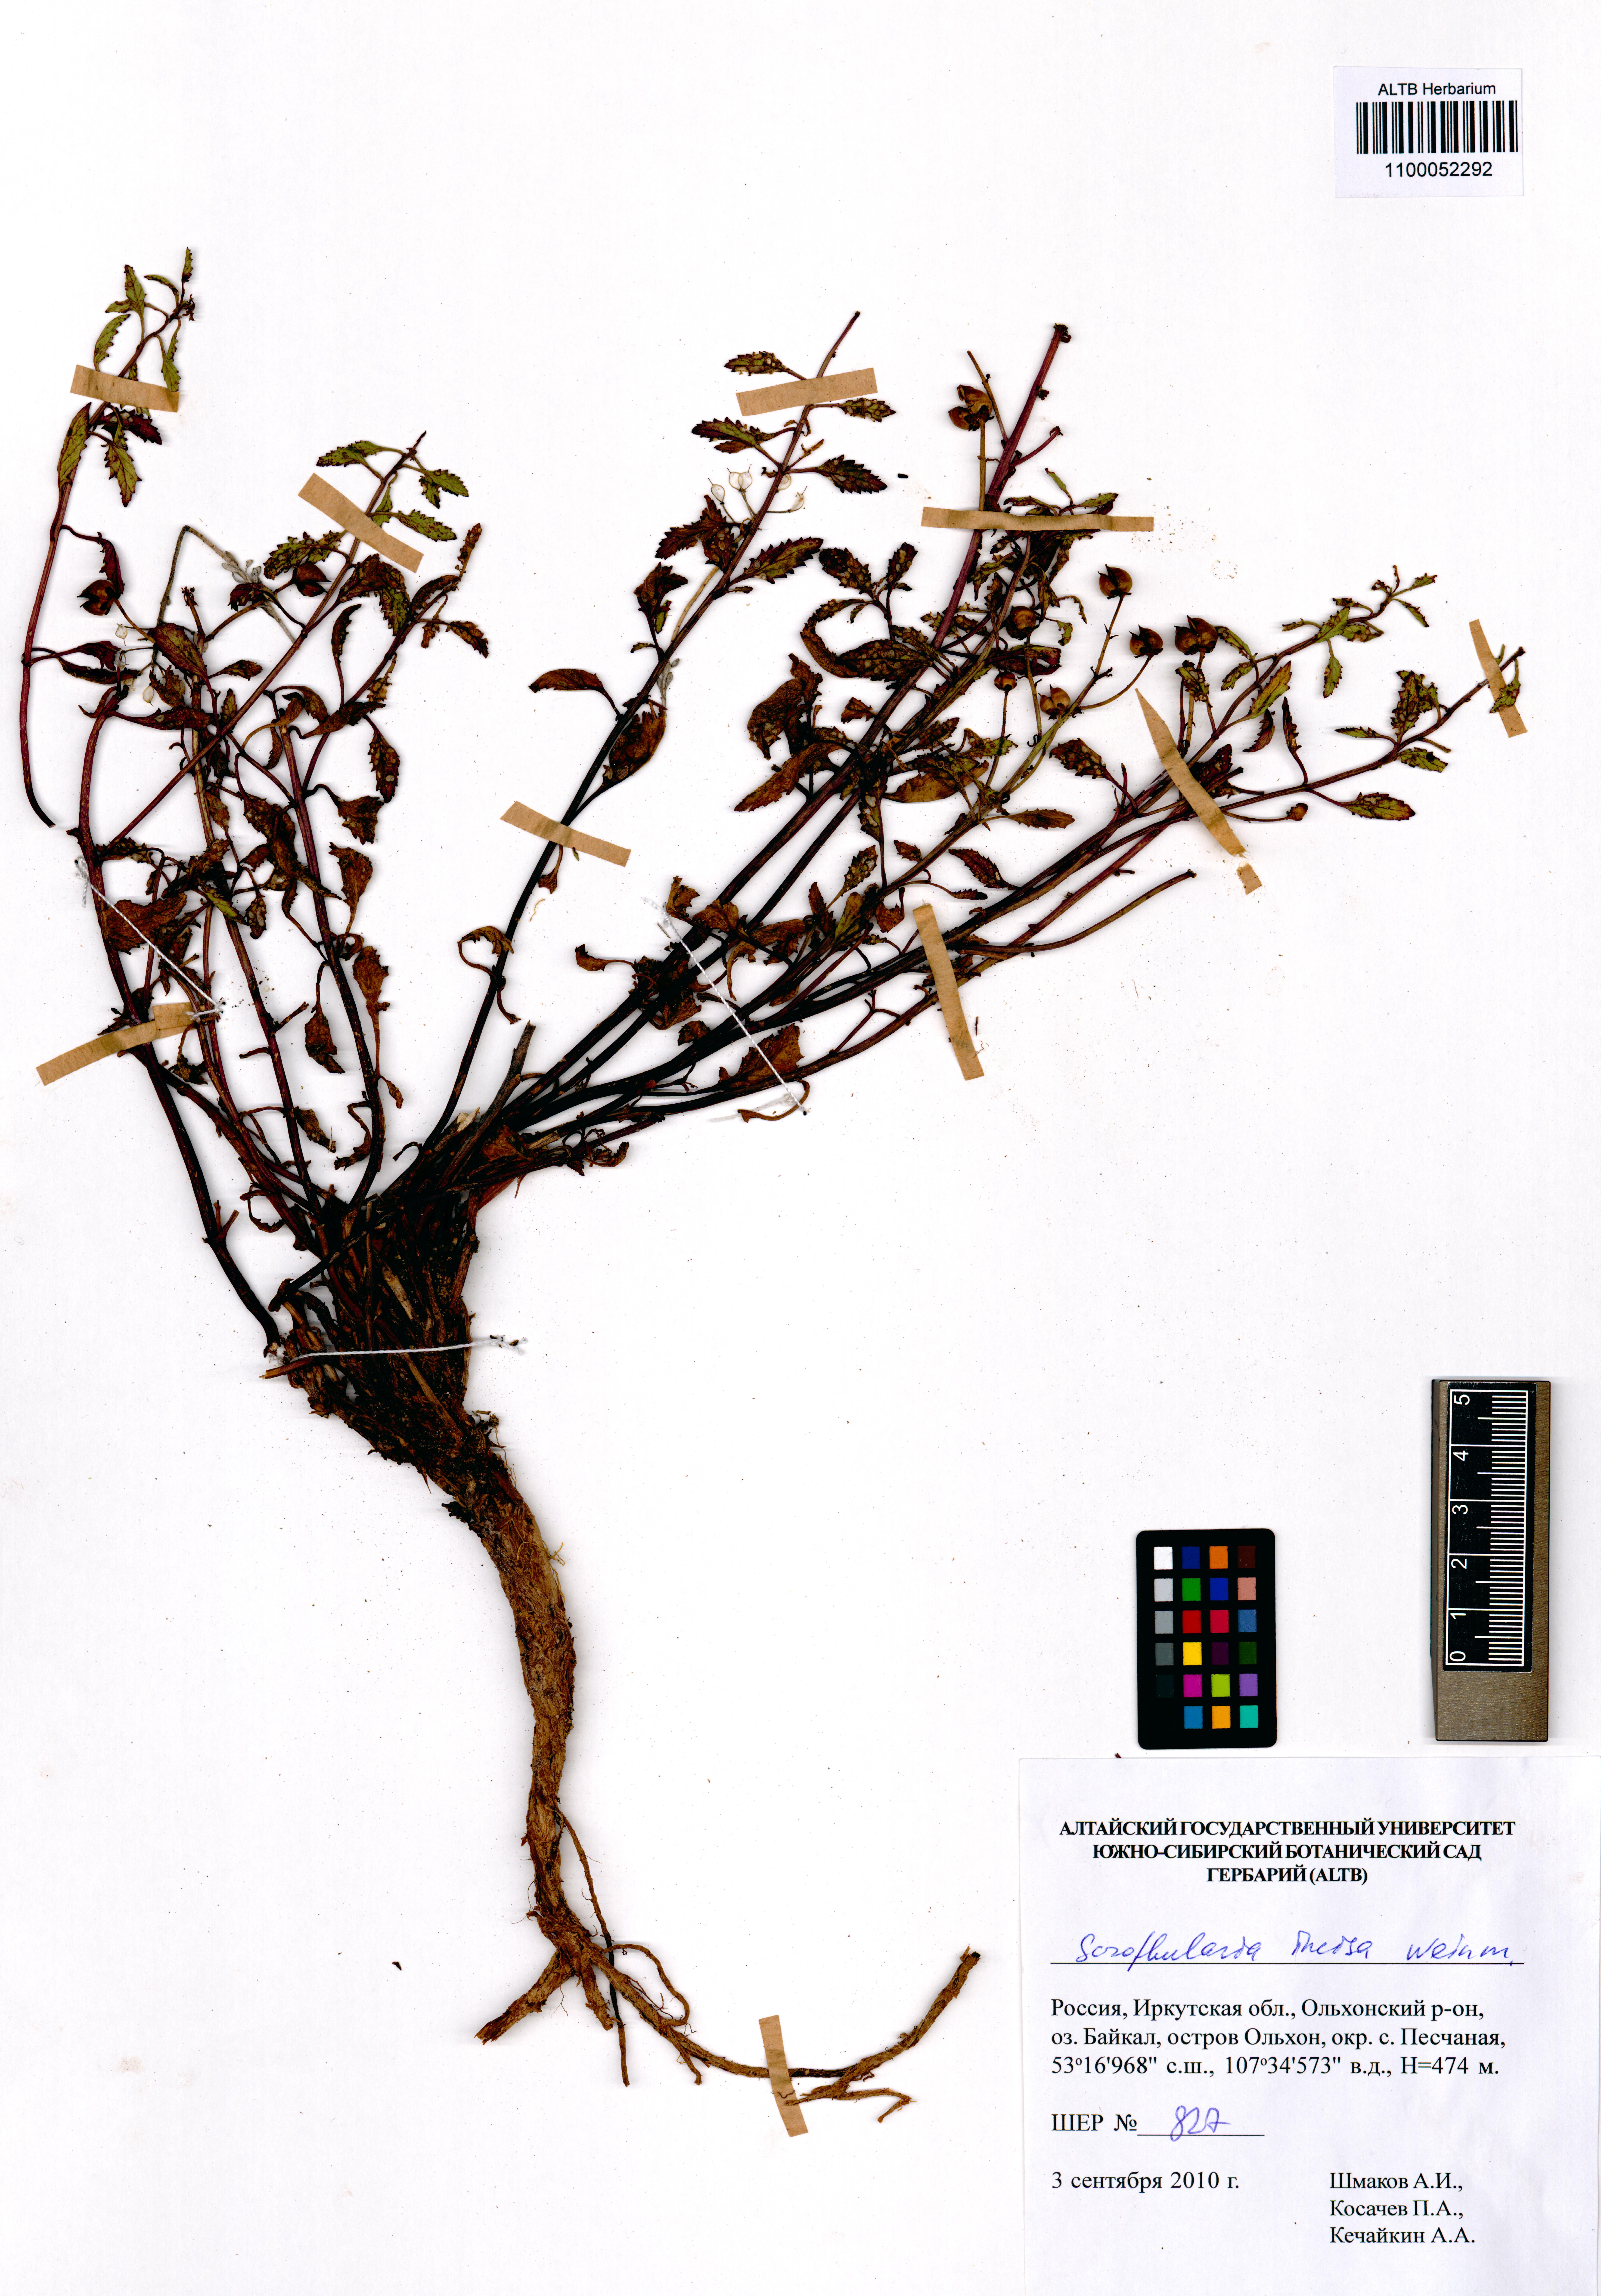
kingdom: Plantae
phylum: Tracheophyta
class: Magnoliopsida
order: Lamiales
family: Scrophulariaceae
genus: Scrophularia
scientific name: Scrophularia incisa
